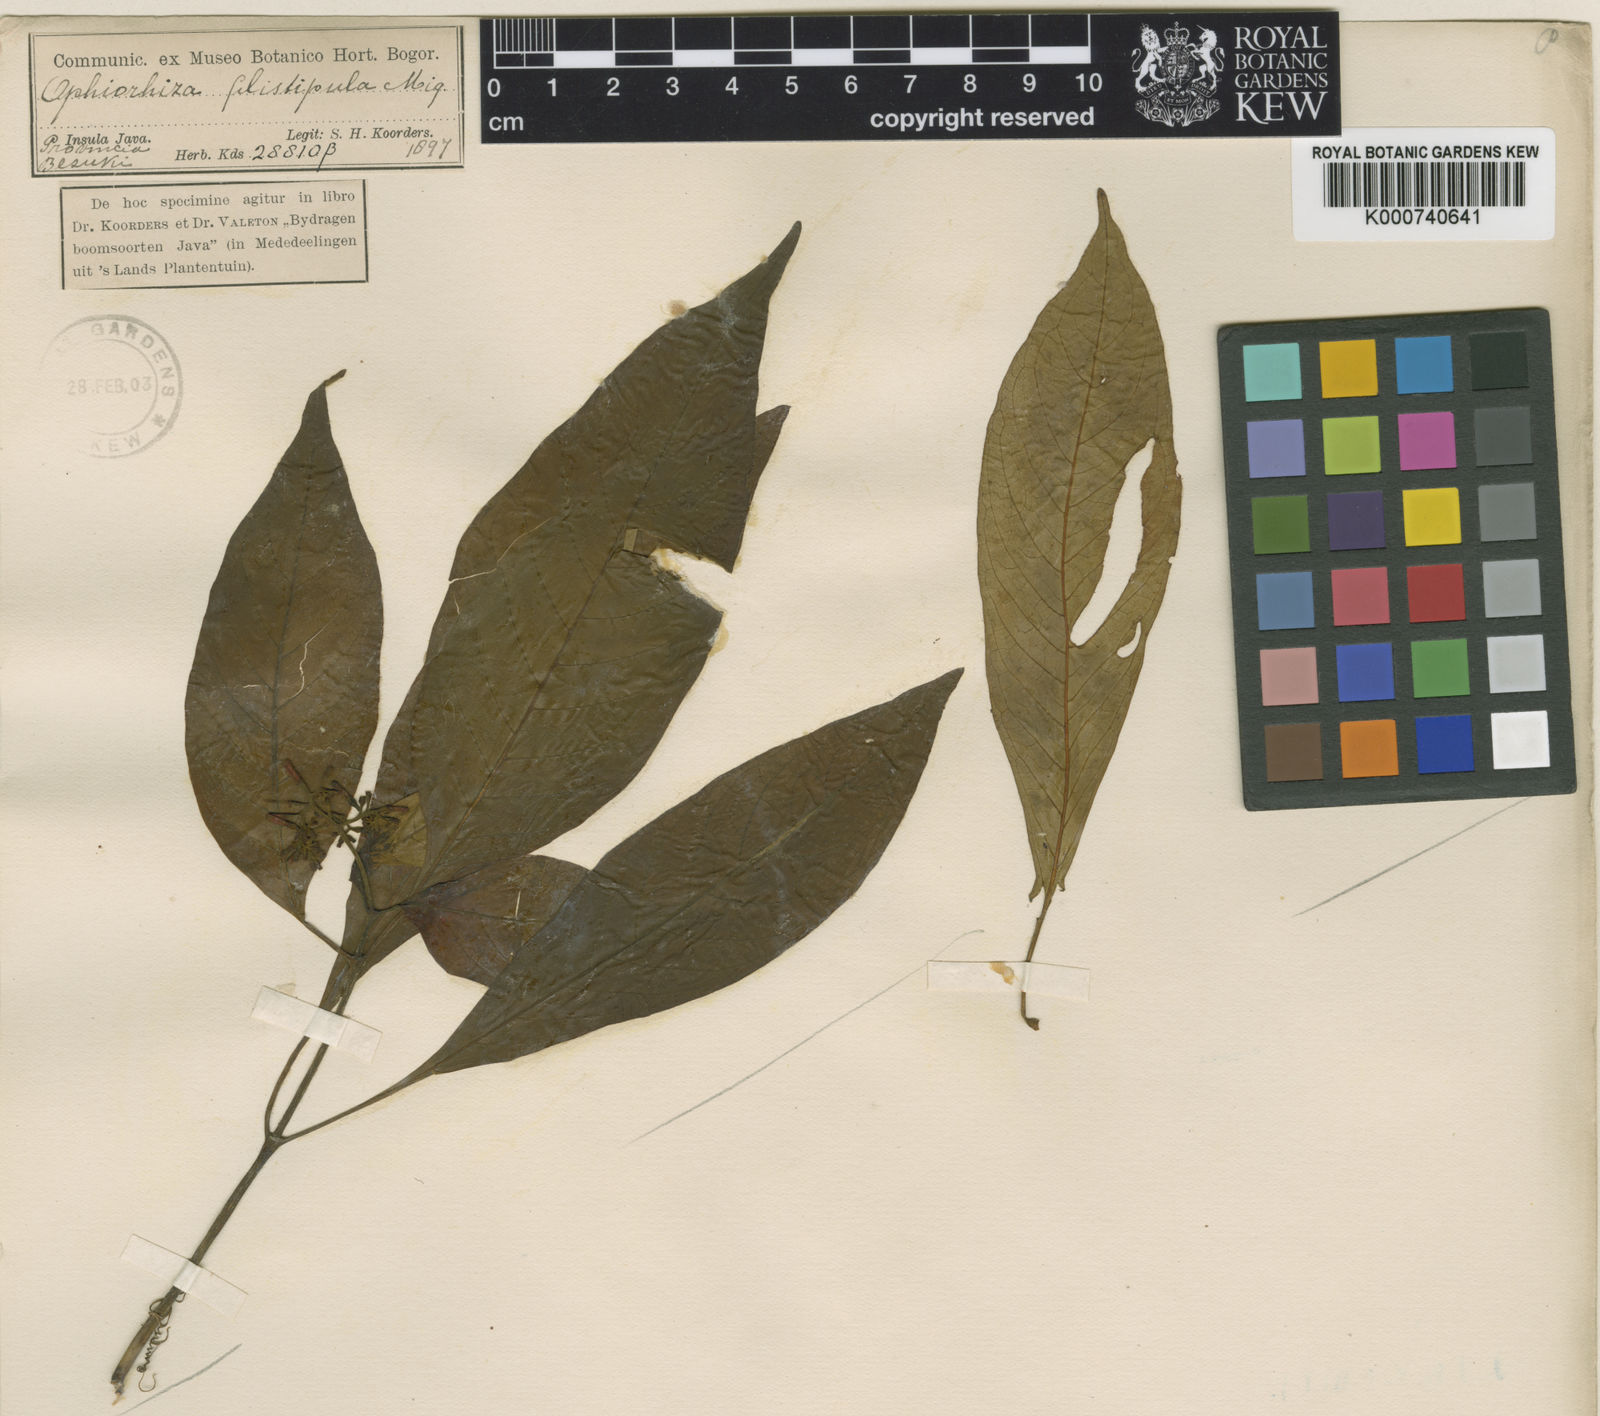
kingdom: Plantae
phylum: Tracheophyta
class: Magnoliopsida
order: Gentianales
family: Rubiaceae
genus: Ophiorrhiza
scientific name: Ophiorrhiza filistipula
